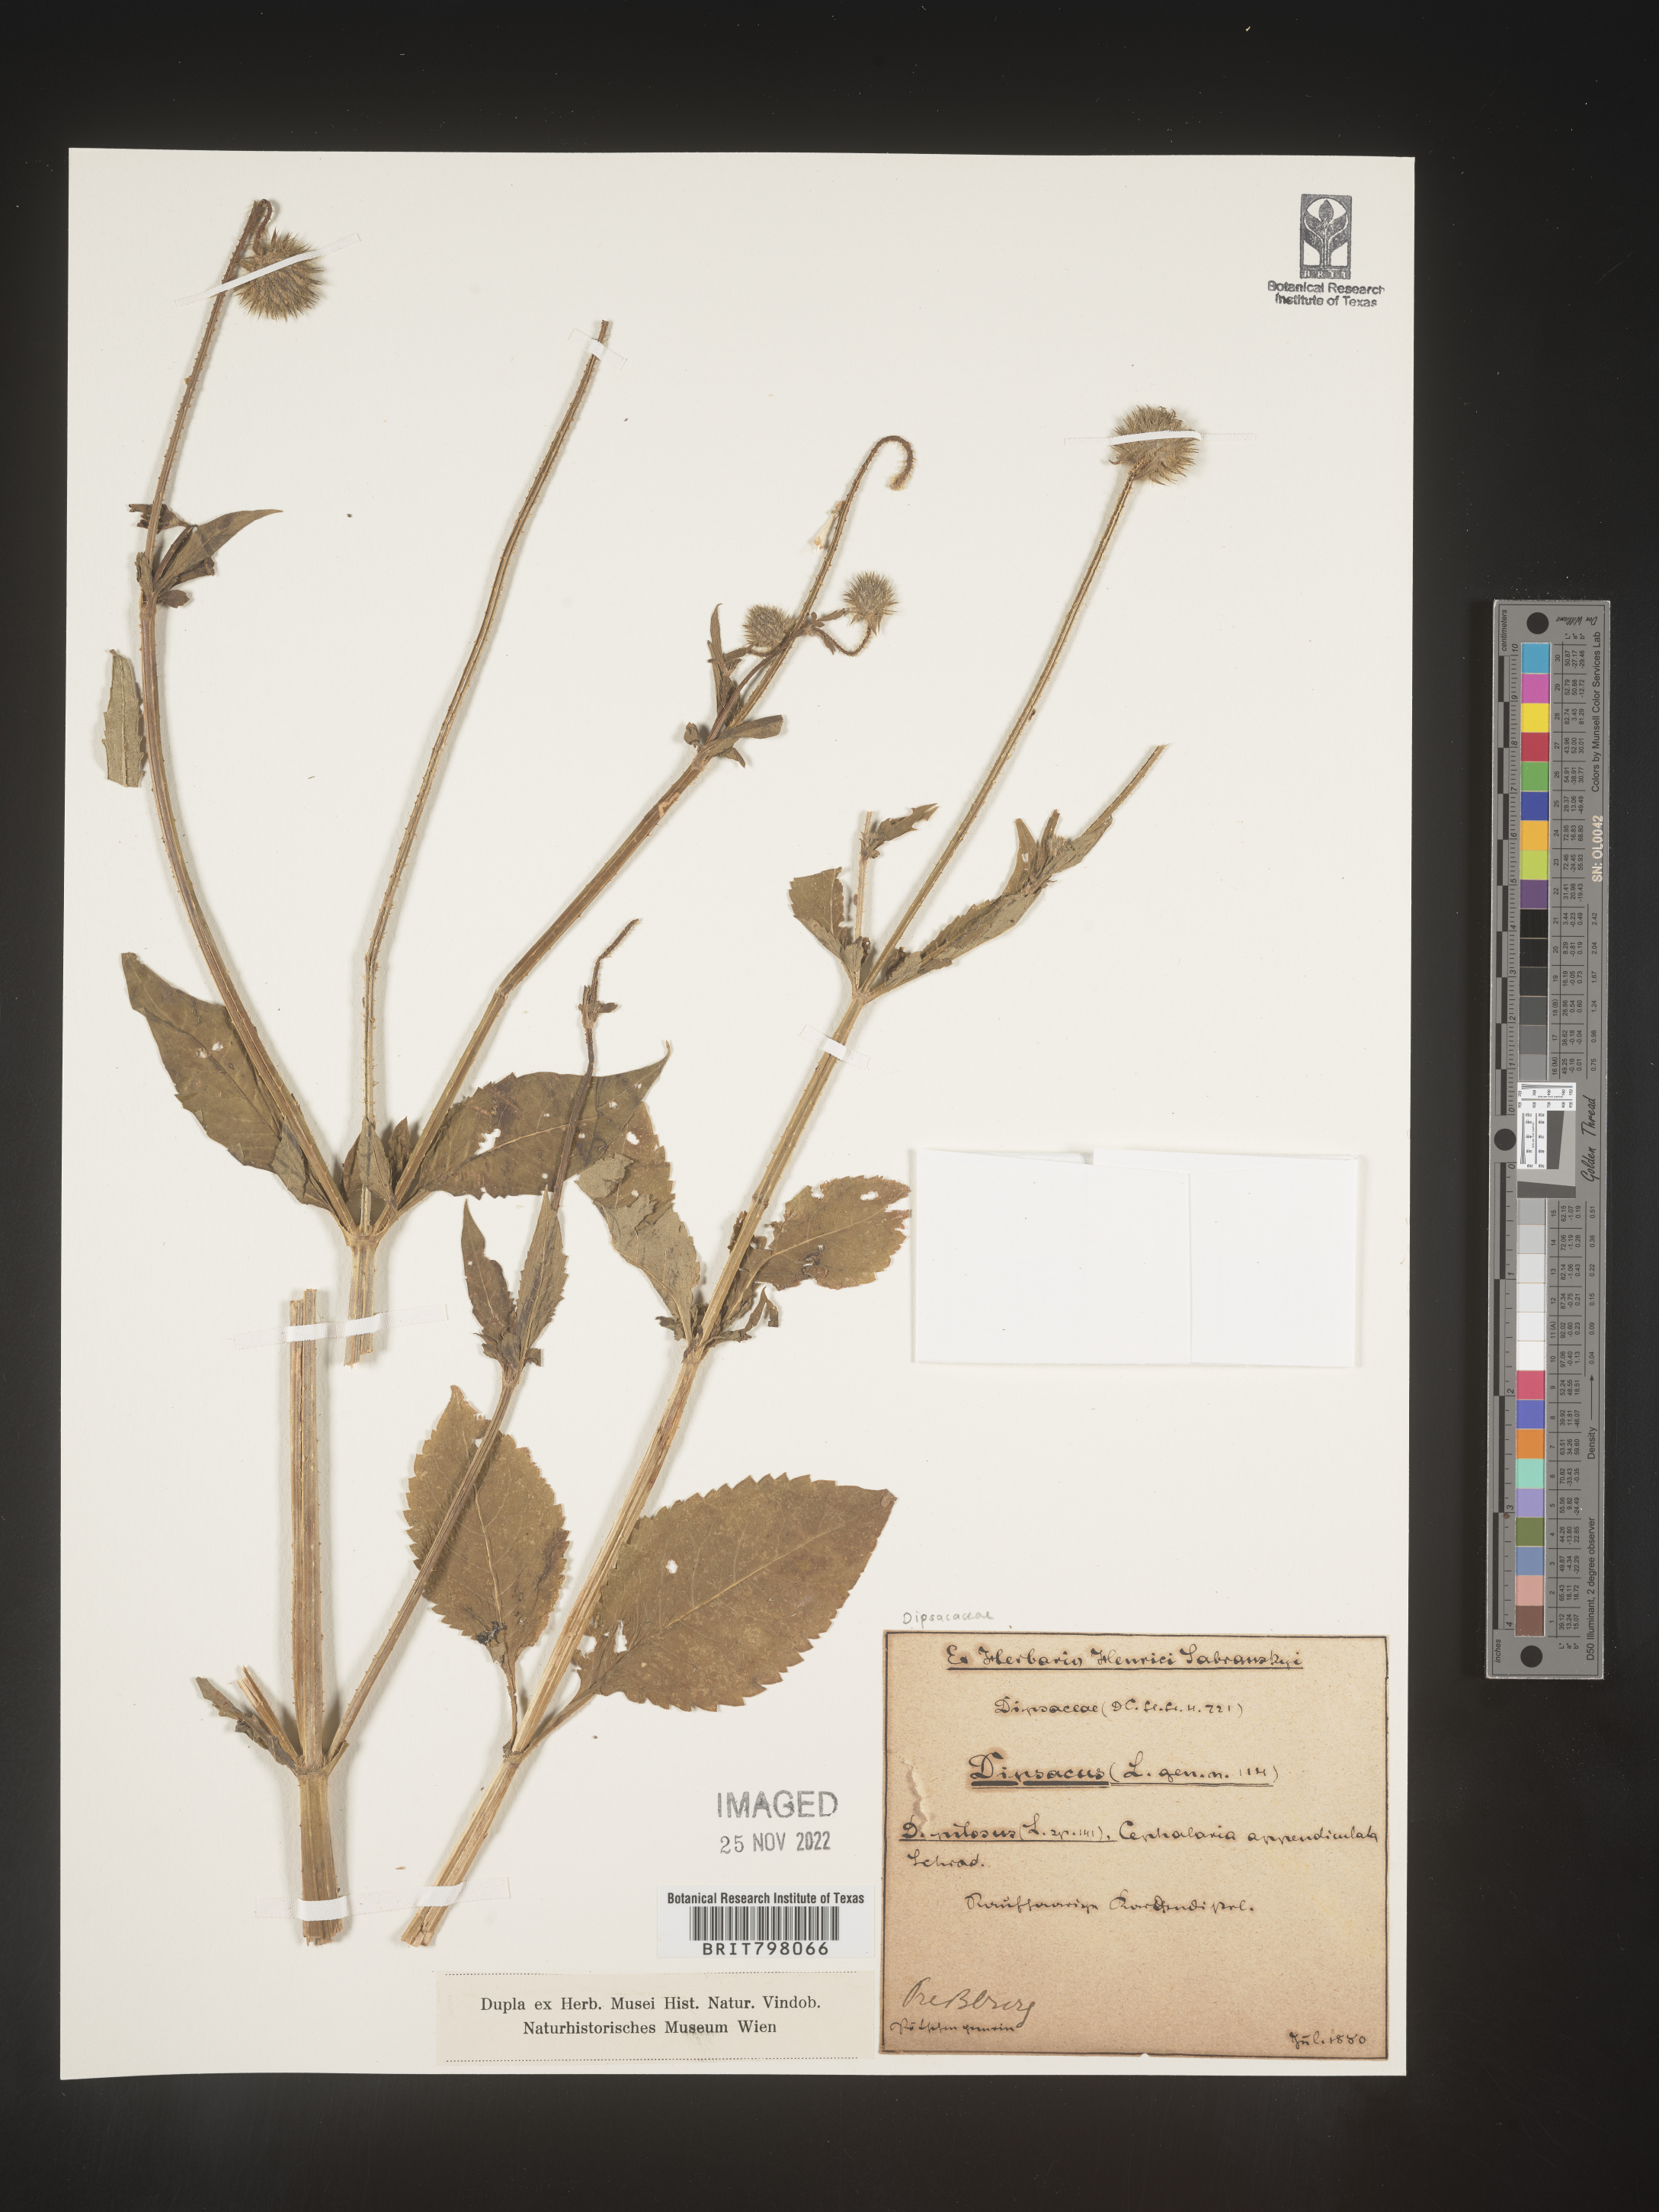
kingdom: Plantae
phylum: Tracheophyta
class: Magnoliopsida
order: Dipsacales
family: Caprifoliaceae
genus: Dipsacus
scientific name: Dipsacus
